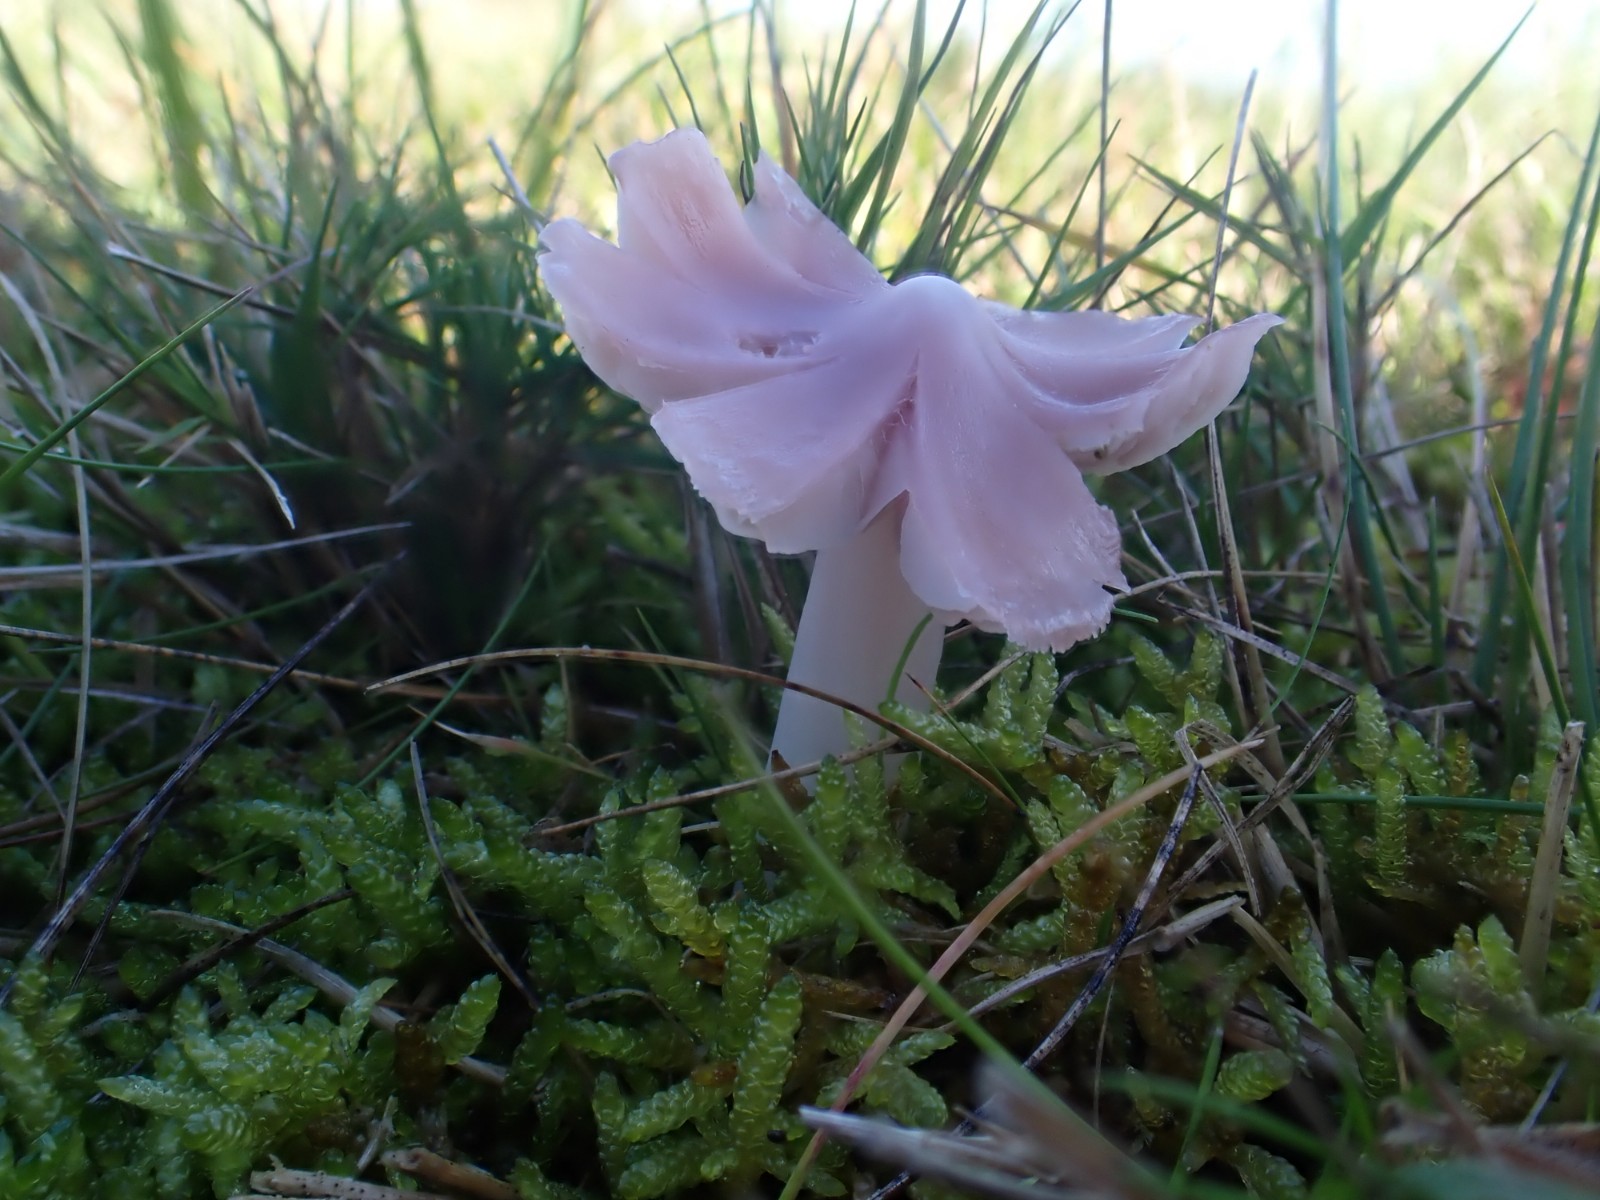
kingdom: Fungi
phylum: Basidiomycota
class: Agaricomycetes
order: Agaricales
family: Hygrophoraceae
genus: Porpolomopsis
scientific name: Porpolomopsis calyptriformis
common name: rosenrød vokshat
